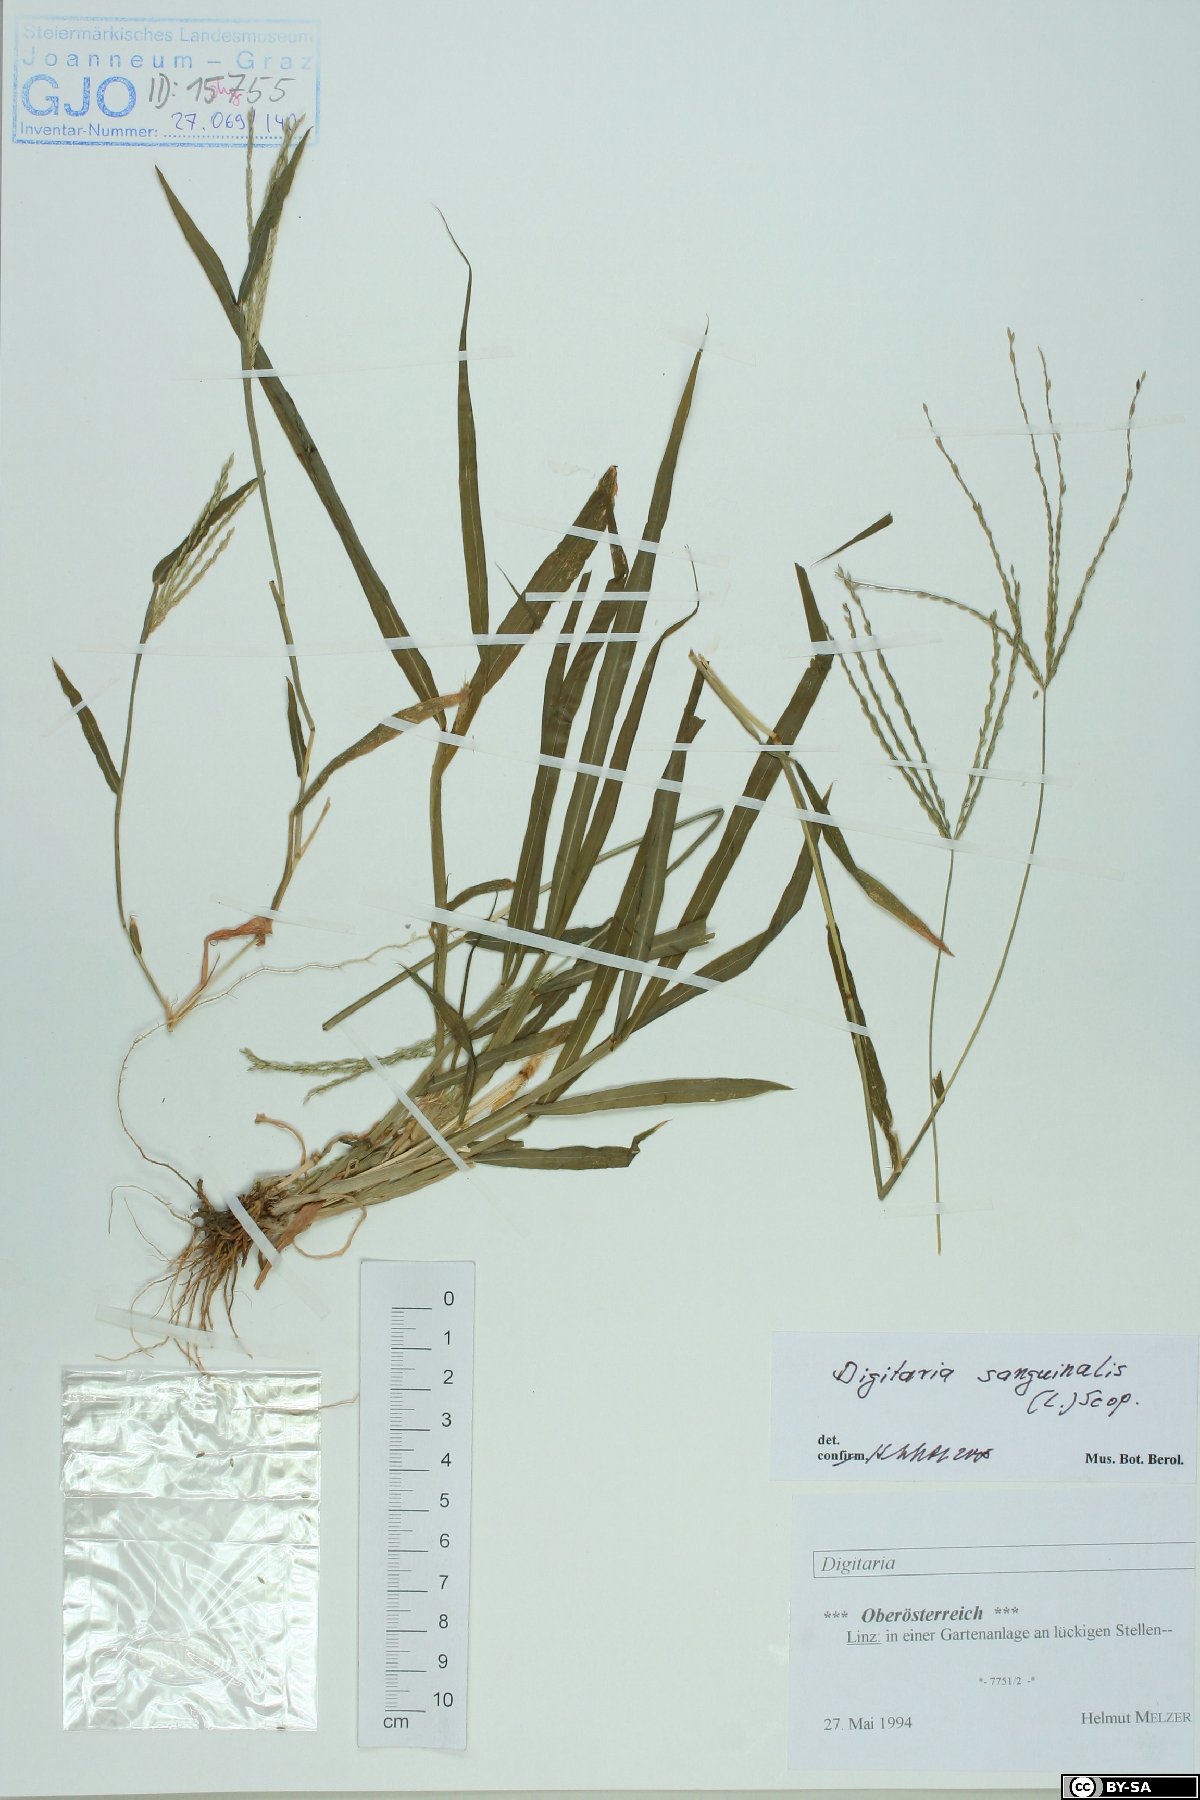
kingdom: Plantae
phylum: Tracheophyta
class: Liliopsida
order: Poales
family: Poaceae
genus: Digitaria
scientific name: Digitaria sanguinalis
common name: Hairy crabgrass
